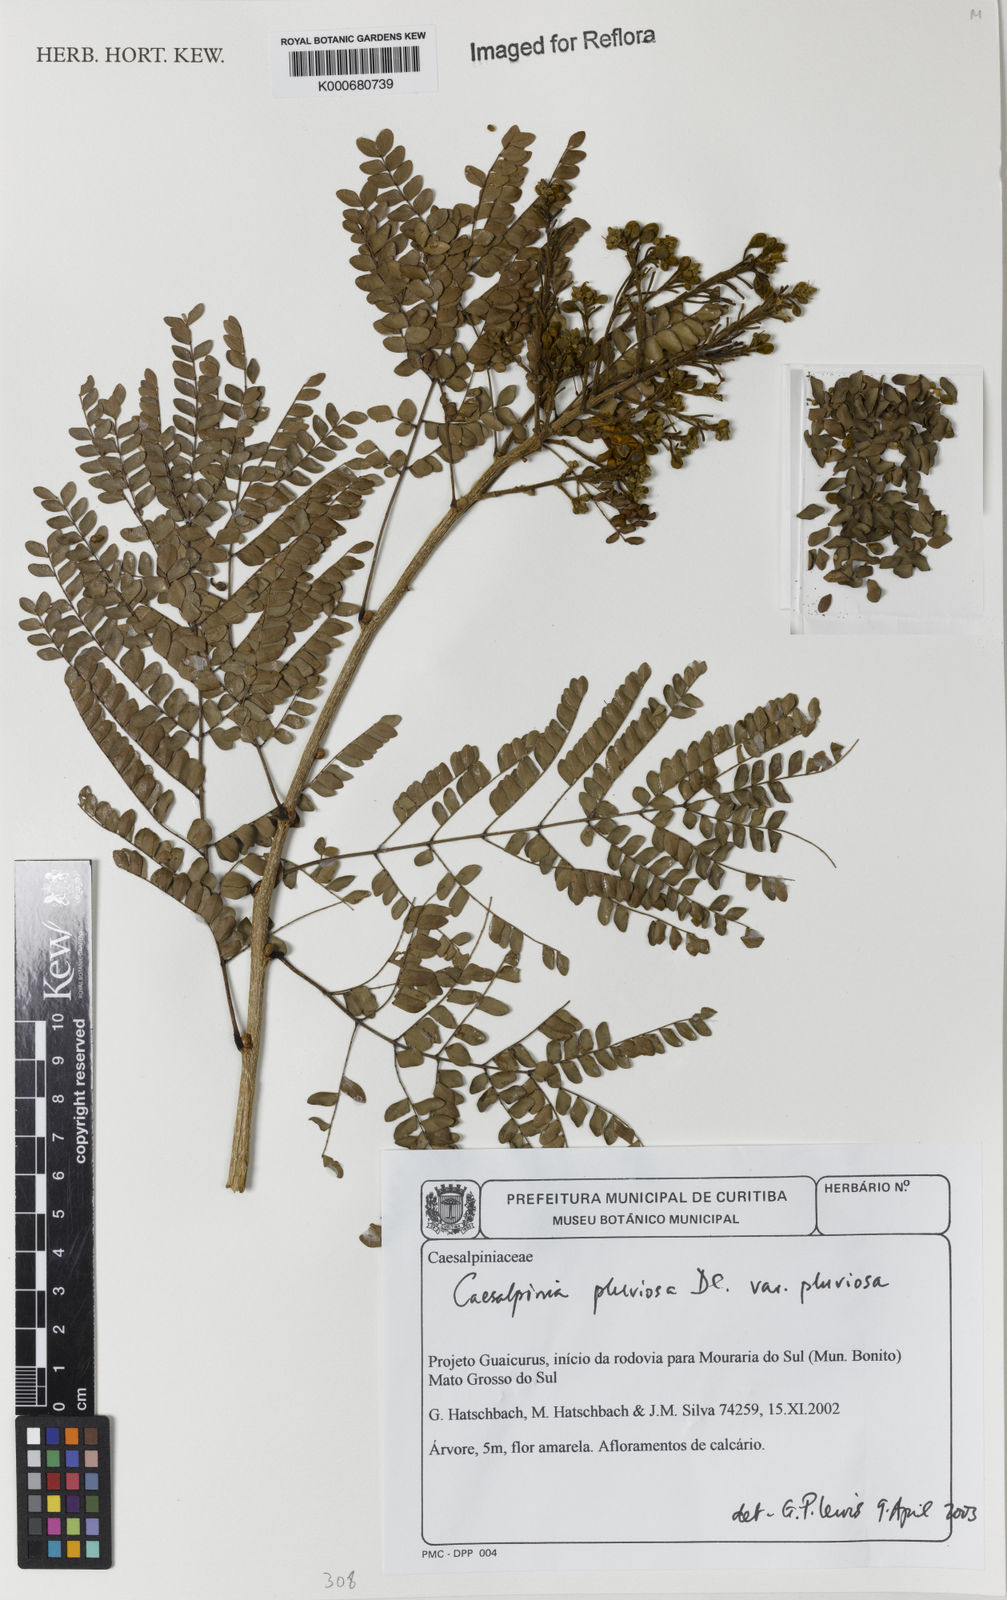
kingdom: Plantae
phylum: Tracheophyta
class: Magnoliopsida
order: Fabales
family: Fabaceae
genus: Cenostigma
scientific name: Cenostigma pluviosum
